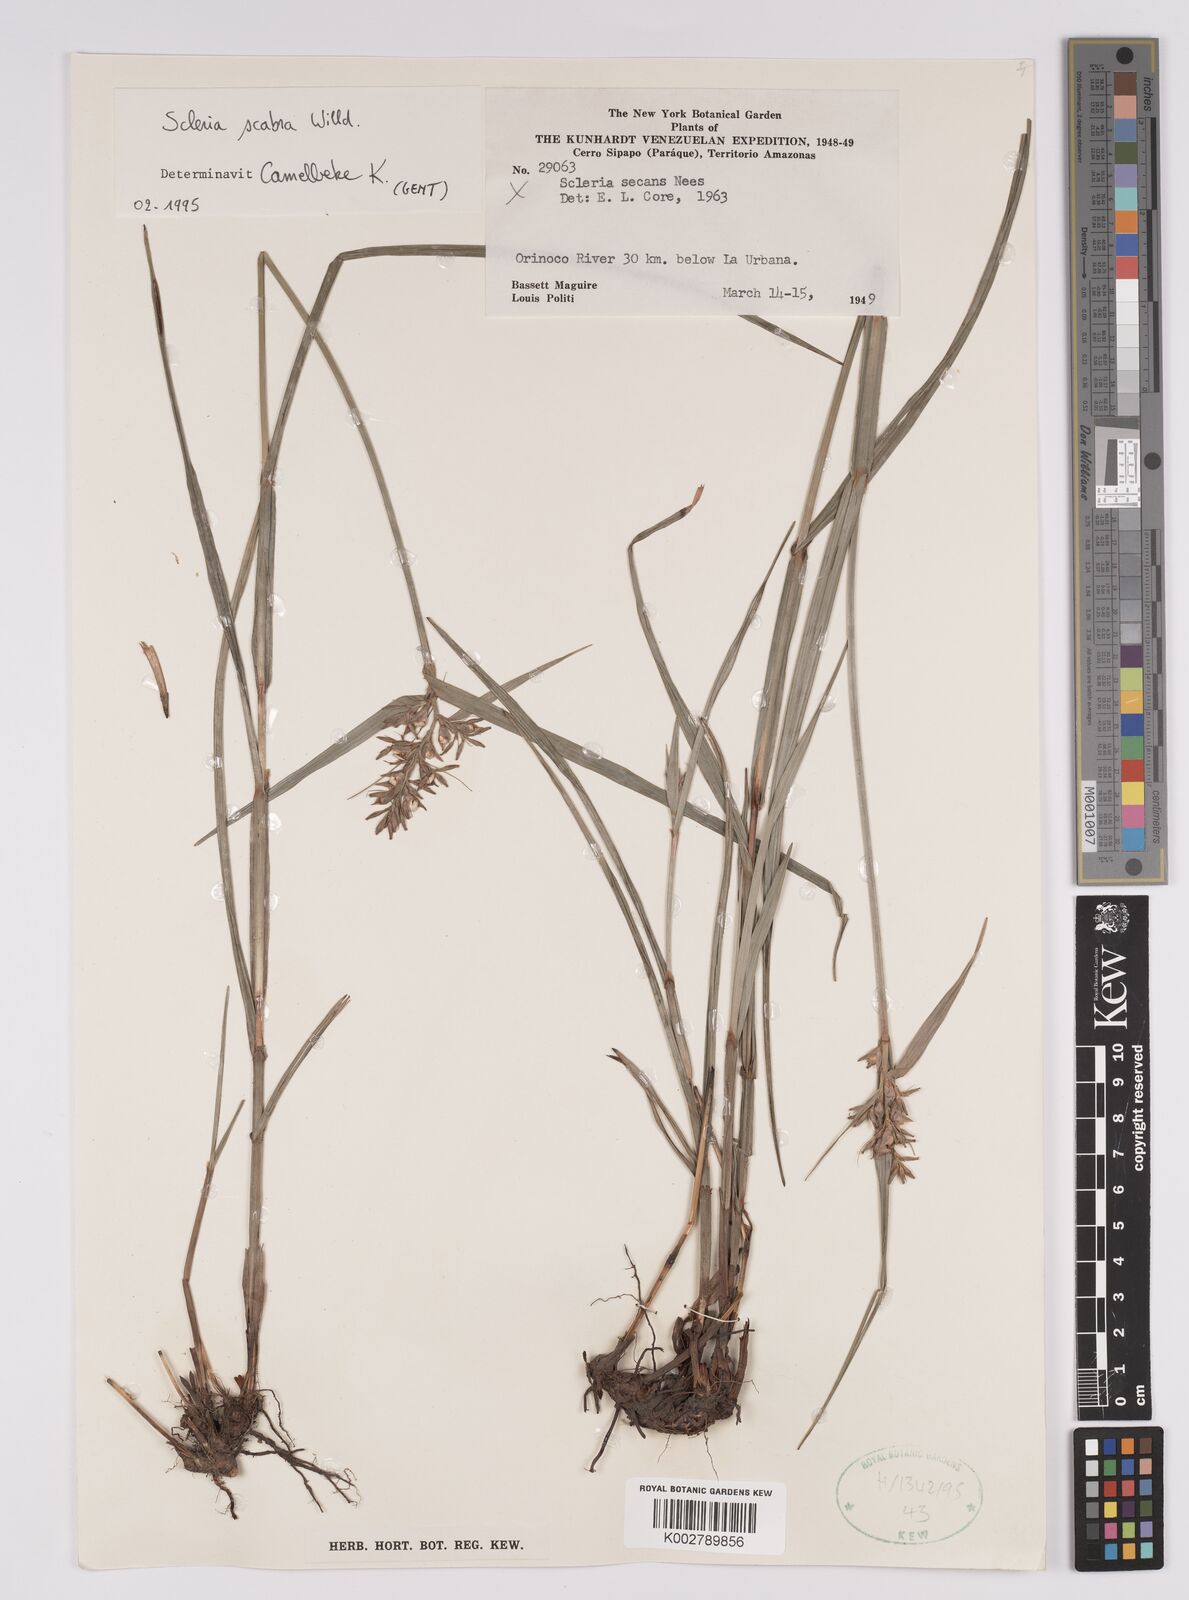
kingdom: Plantae
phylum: Tracheophyta
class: Liliopsida
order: Poales
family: Cyperaceae
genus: Scleria
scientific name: Scleria scabra
